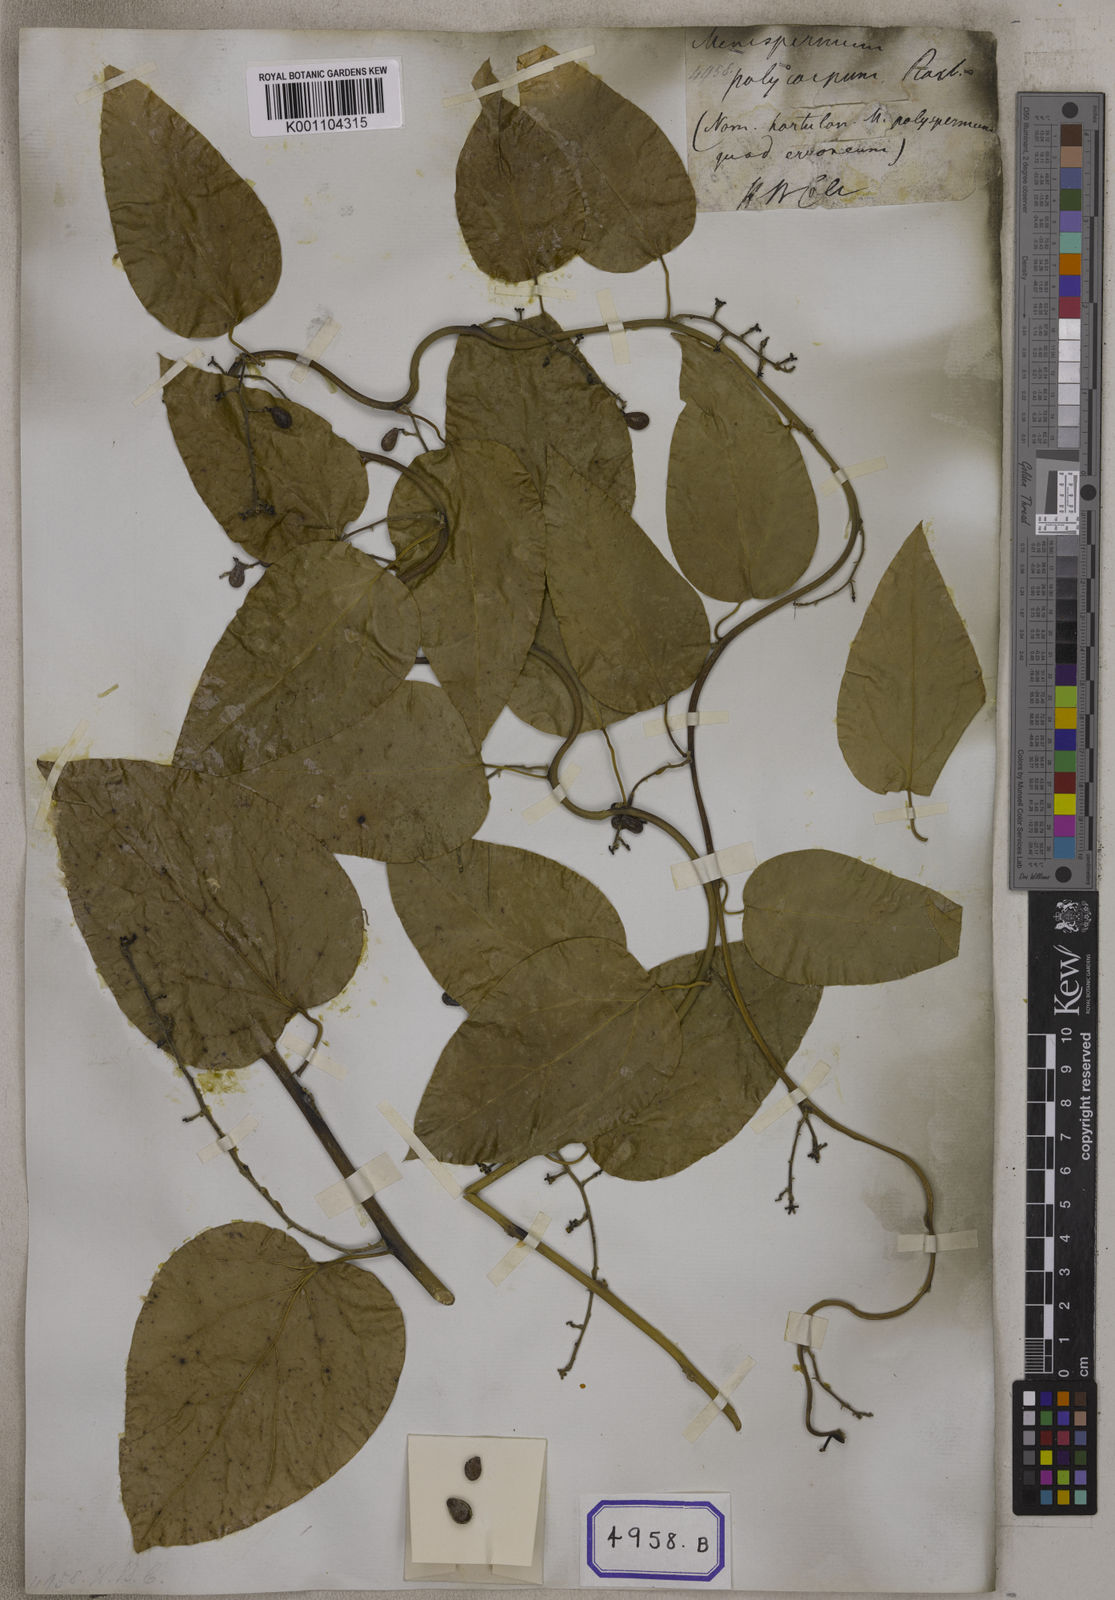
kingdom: Plantae
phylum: Tracheophyta
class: Magnoliopsida
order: Ranunculales
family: Menispermaceae
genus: Cocculus
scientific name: Cocculus
